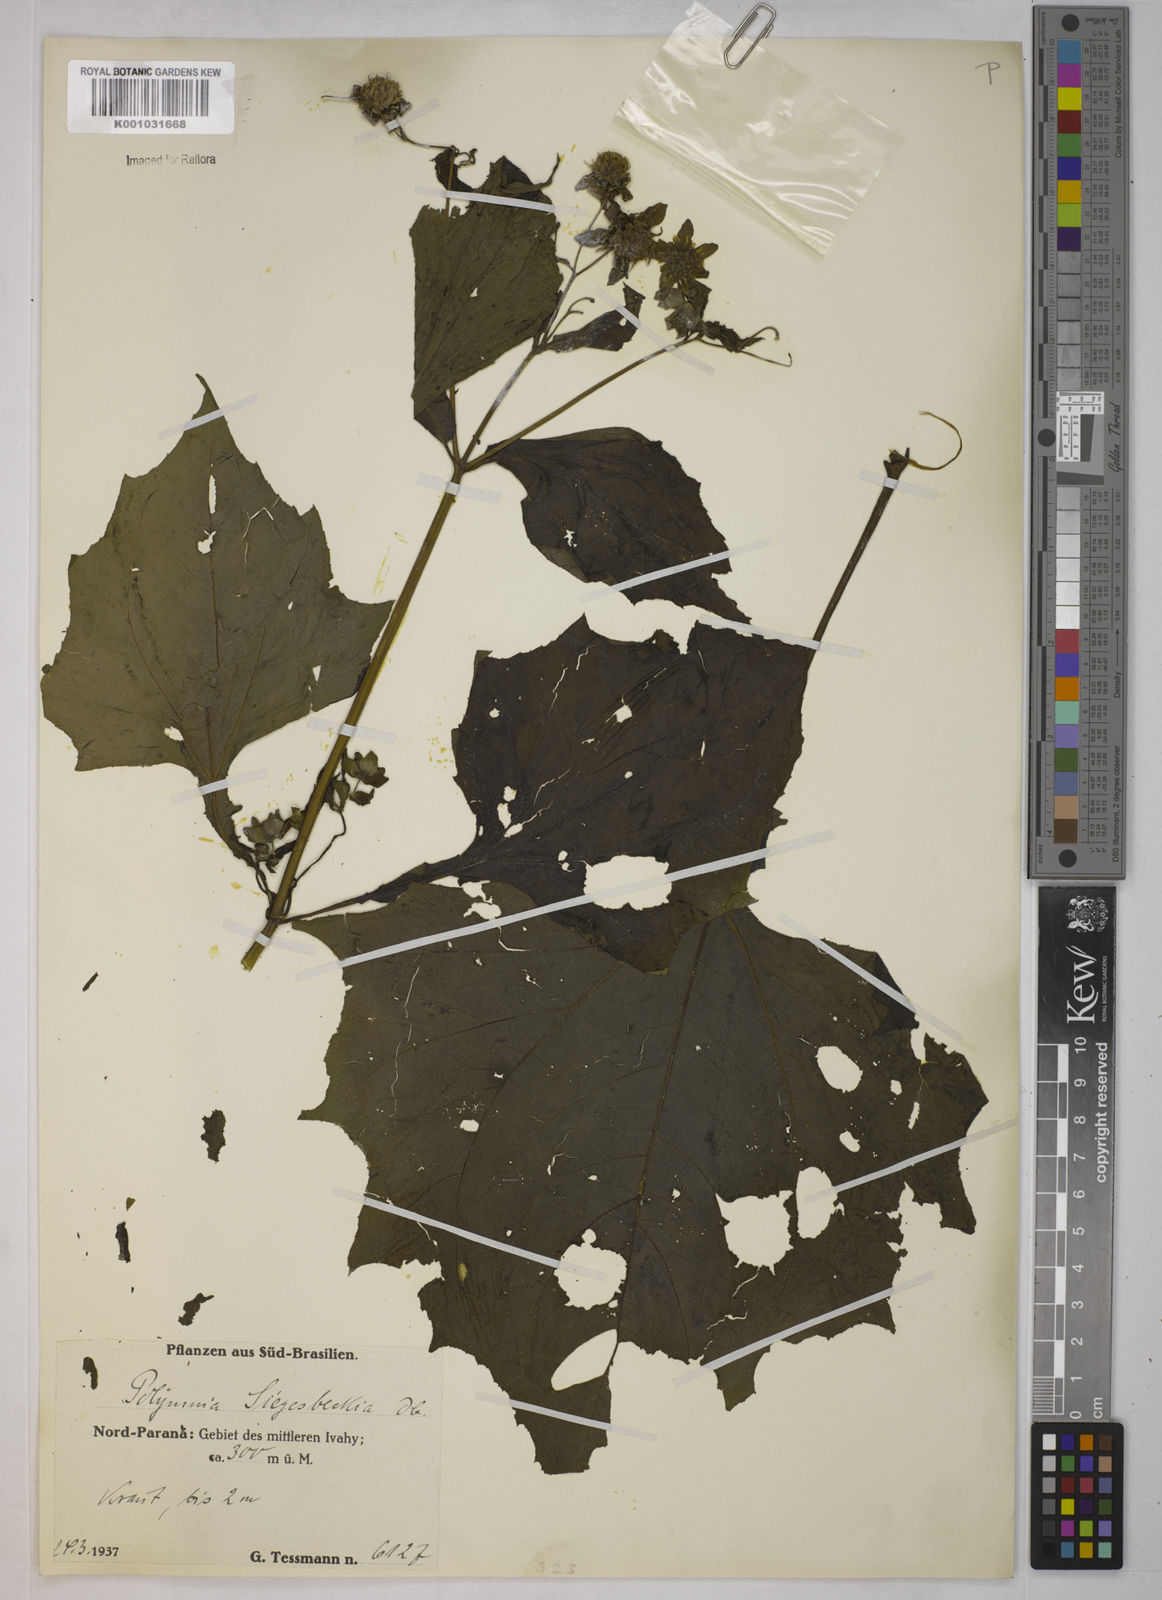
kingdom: Plantae
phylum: Tracheophyta
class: Magnoliopsida
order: Asterales
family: Asteraceae
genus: Smallanthus
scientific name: Smallanthus siegesbeckius
